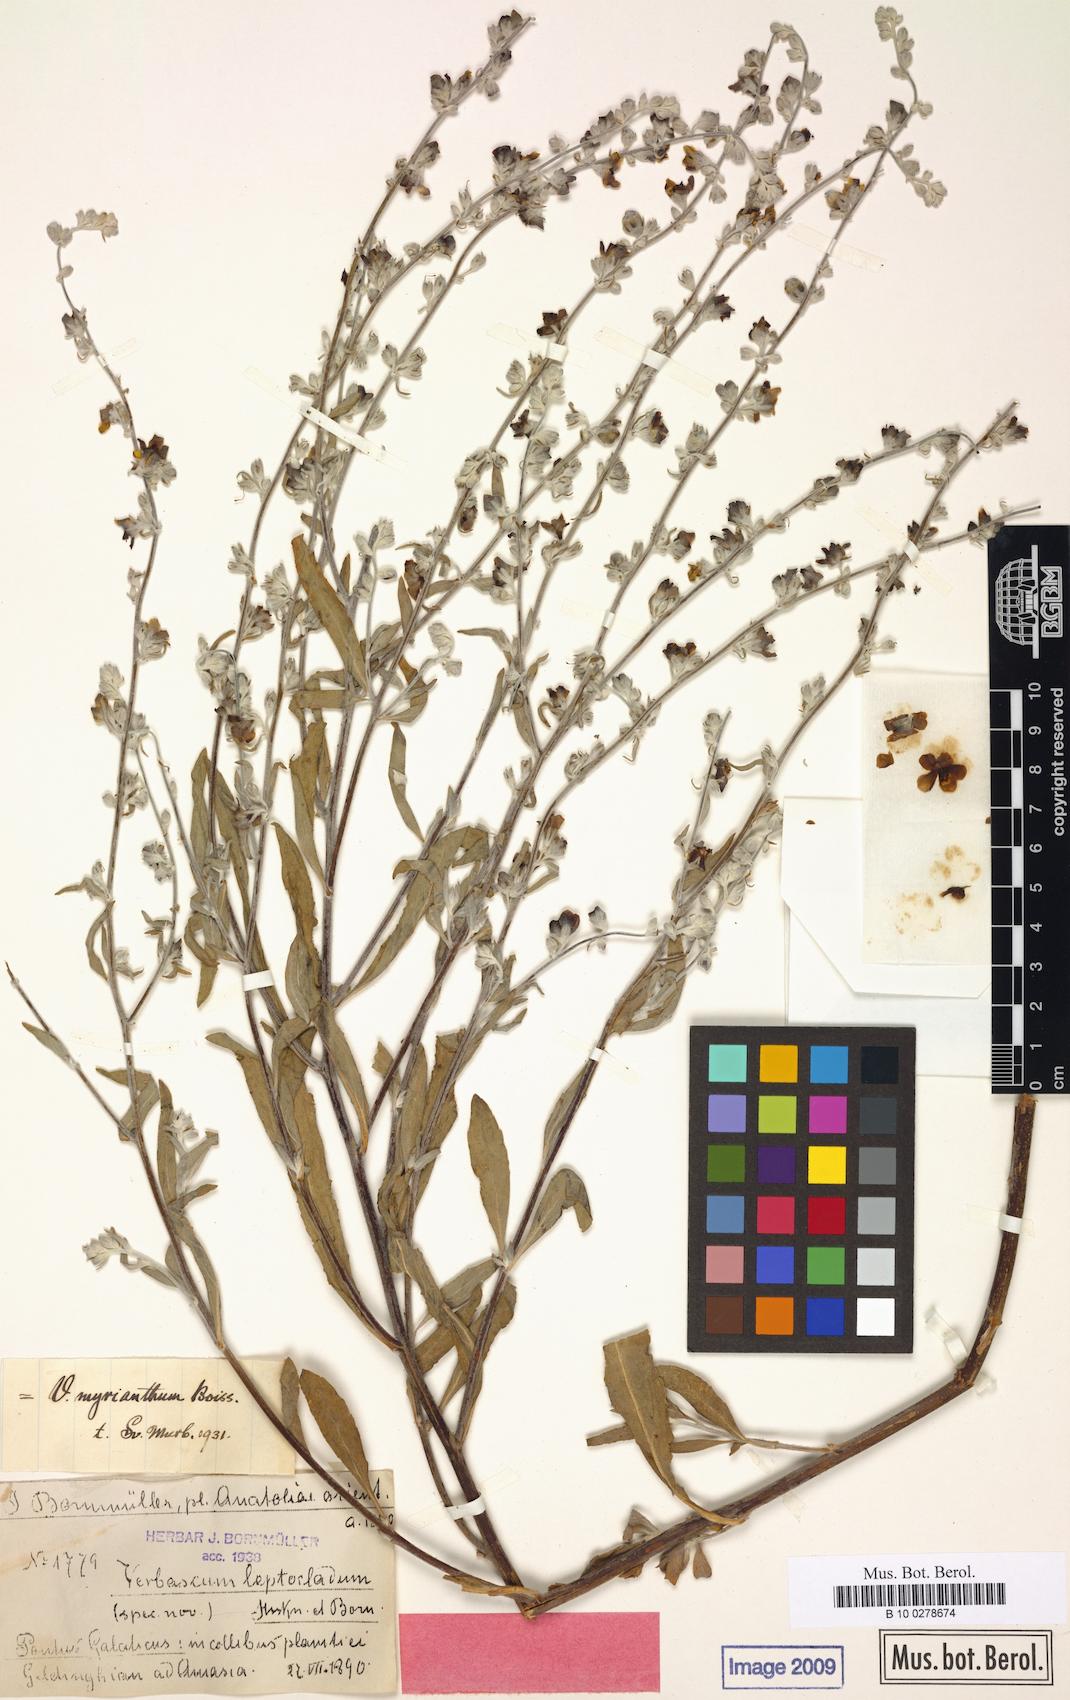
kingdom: Plantae
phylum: Tracheophyta
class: Magnoliopsida
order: Lamiales
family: Scrophulariaceae
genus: Verbascum
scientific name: Verbascum myrianthum
